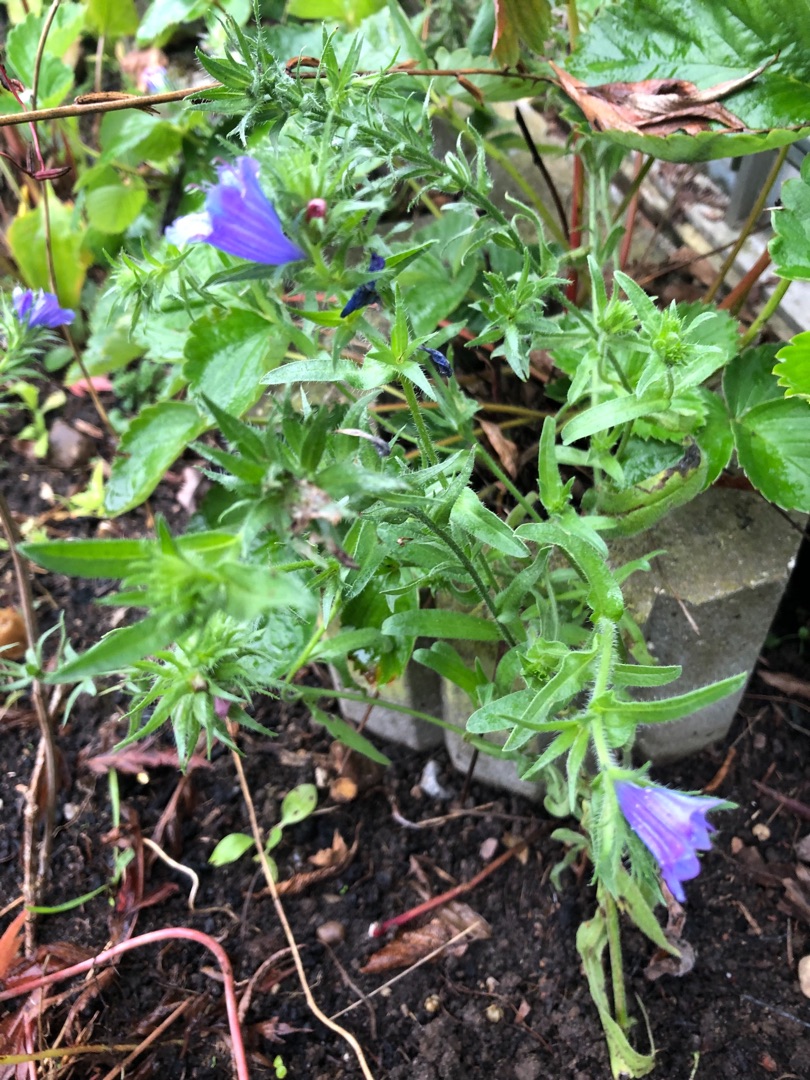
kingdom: Plantae
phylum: Tracheophyta
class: Magnoliopsida
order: Boraginales
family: Boraginaceae
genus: Echium
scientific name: Echium plantagineum
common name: Vejbred-slangehoved
